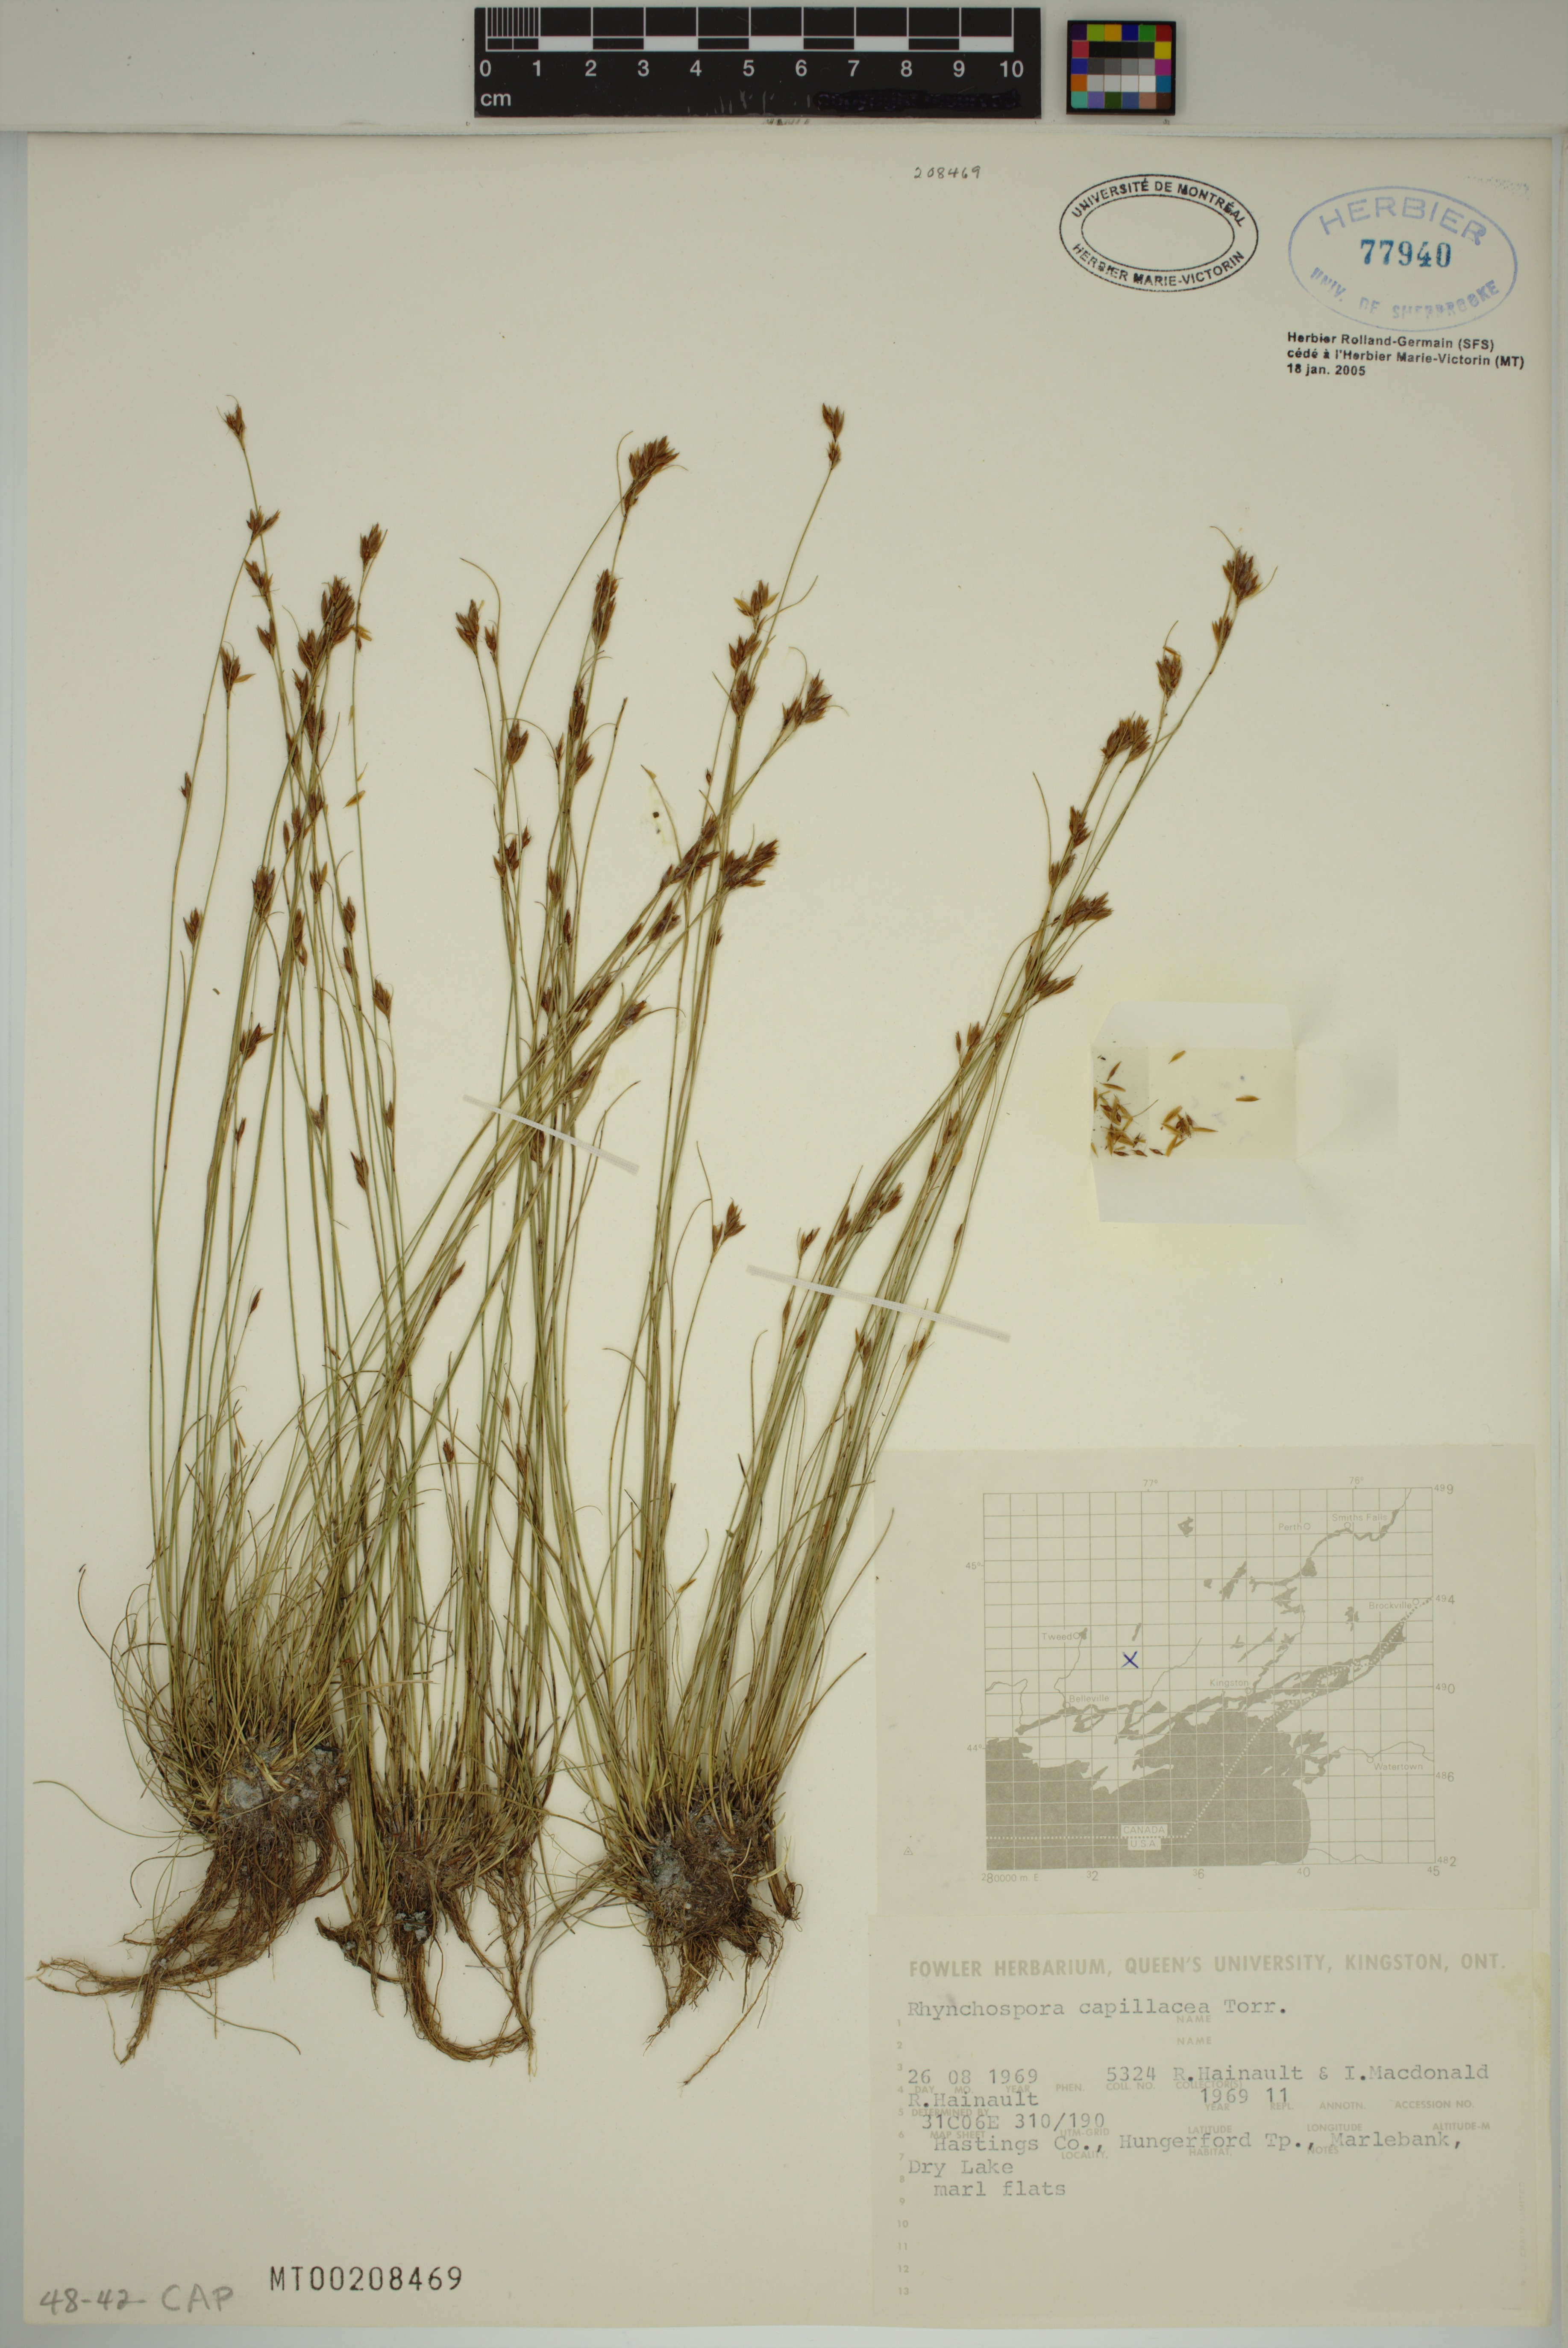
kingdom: Plantae
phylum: Tracheophyta
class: Liliopsida
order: Poales
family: Cyperaceae
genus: Rhynchospora
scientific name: Rhynchospora capillacea
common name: Capillary beakrush
